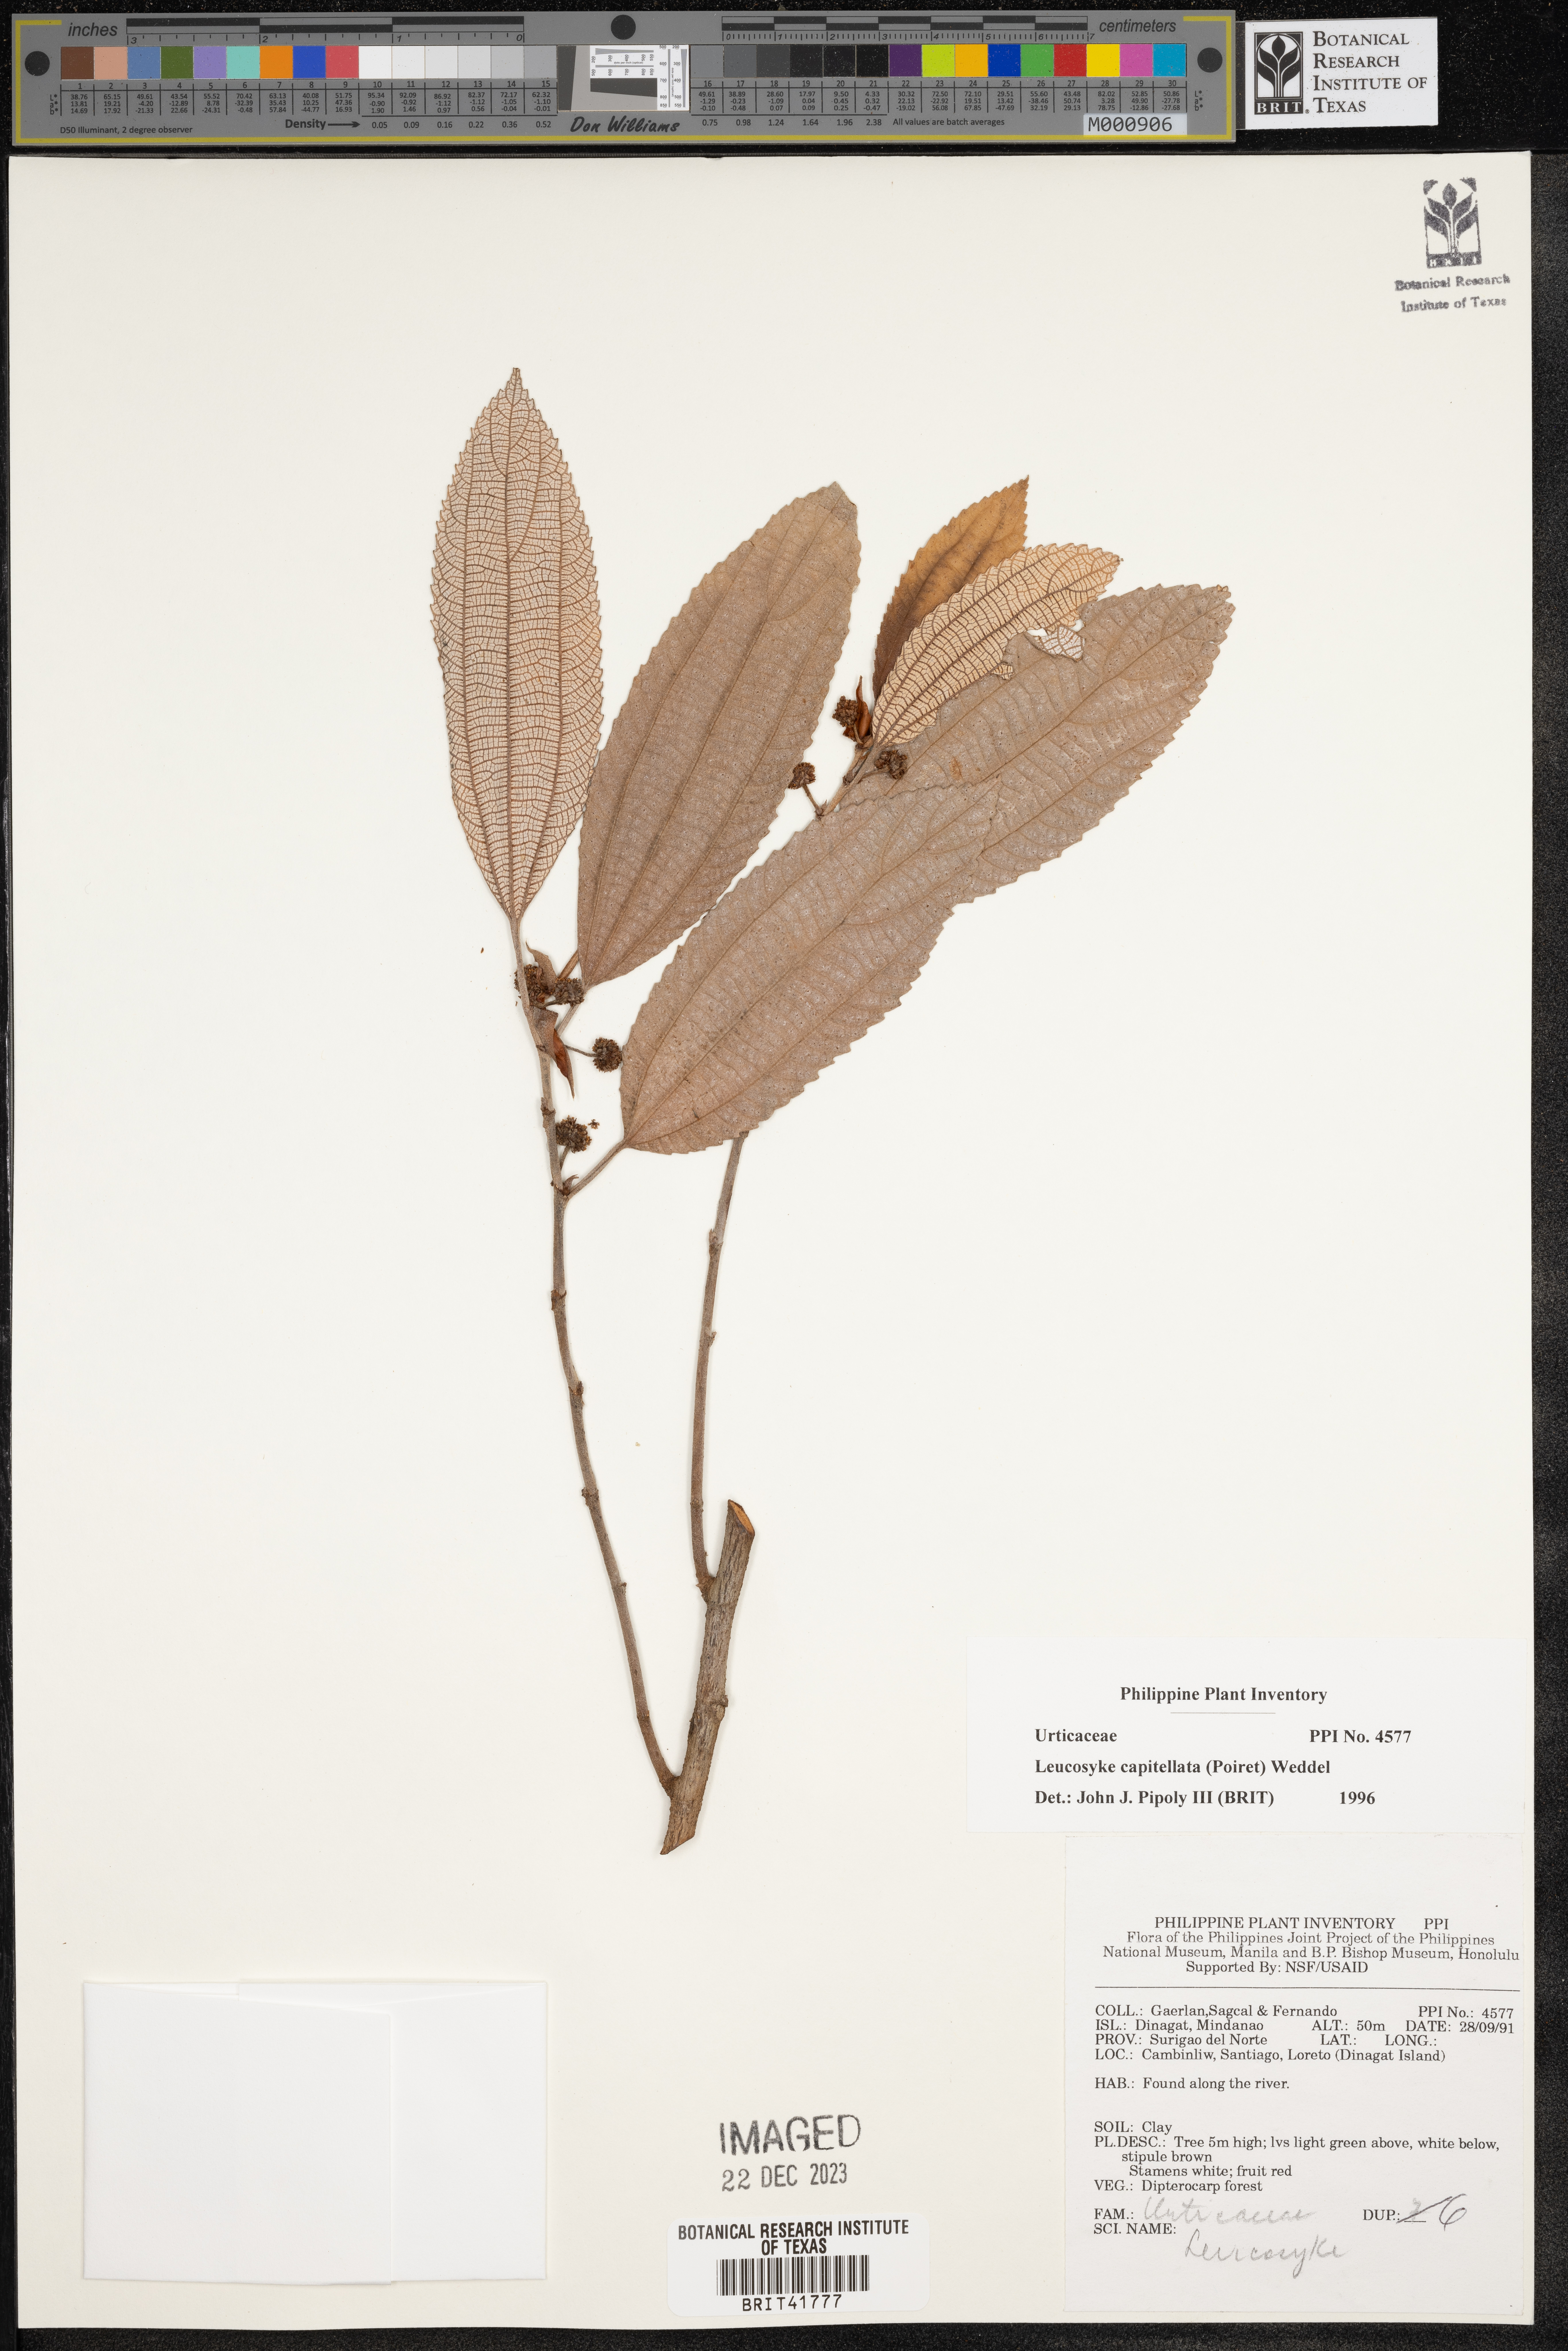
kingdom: Plantae
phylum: Tracheophyta
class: Magnoliopsida
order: Rosales
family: Urticaceae
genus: Leucosyke
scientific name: Leucosyke capitellata
